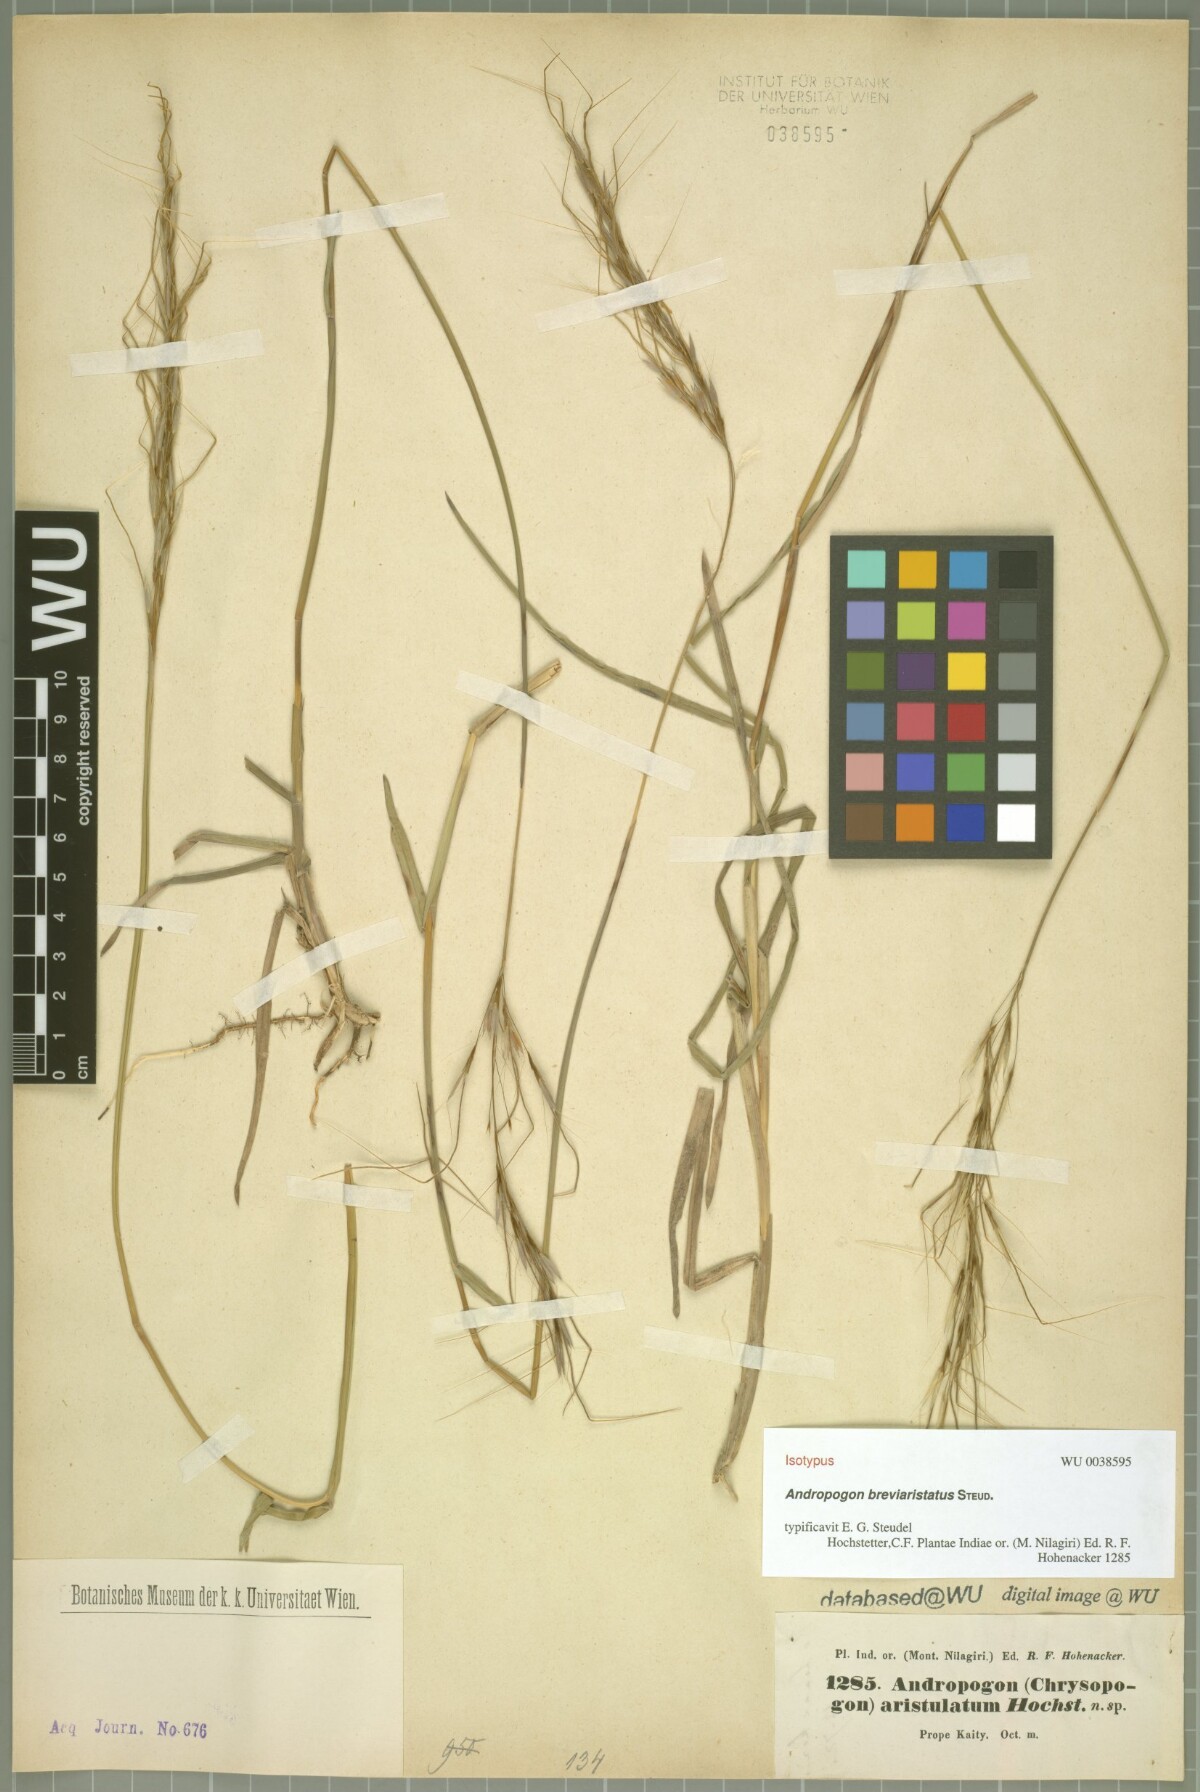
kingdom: Plantae
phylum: Tracheophyta
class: Liliopsida
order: Poales
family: Poaceae
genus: Chrysopogon
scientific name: Chrysopogon orientalis
